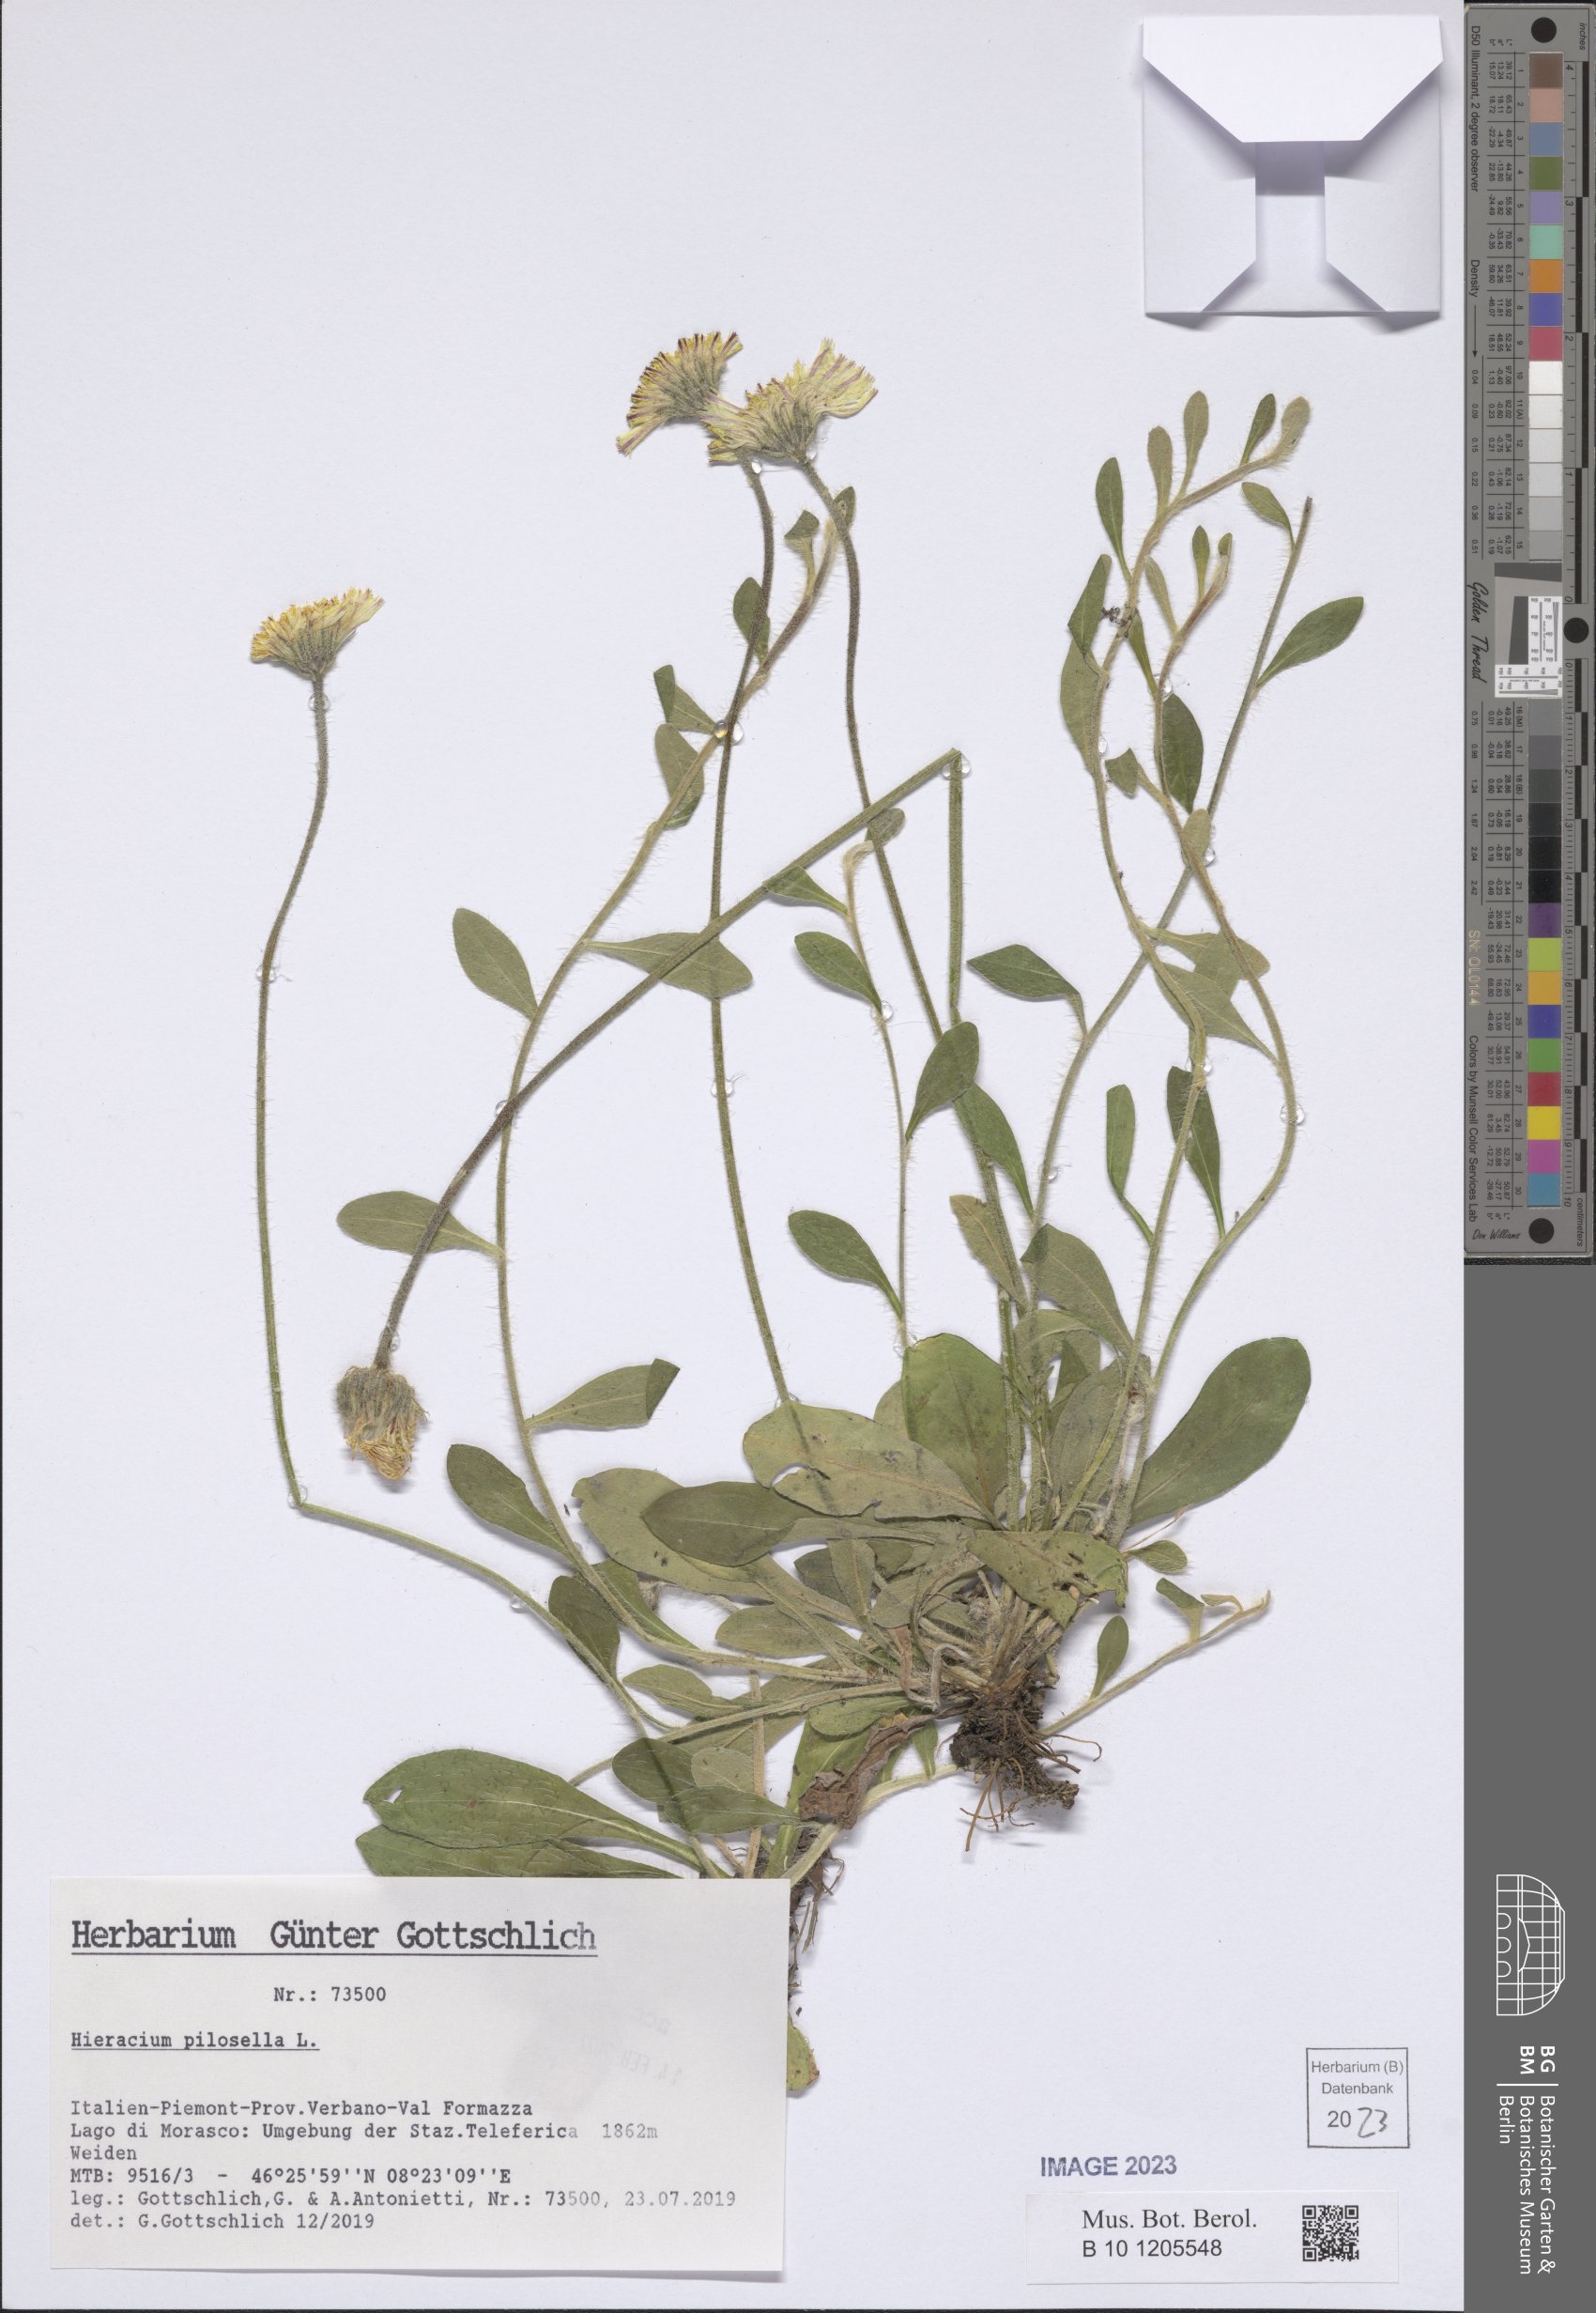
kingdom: Plantae
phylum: Tracheophyta
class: Magnoliopsida
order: Asterales
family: Asteraceae
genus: Pilosella
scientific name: Pilosella officinarum
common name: Mouse-ear hawkweed
